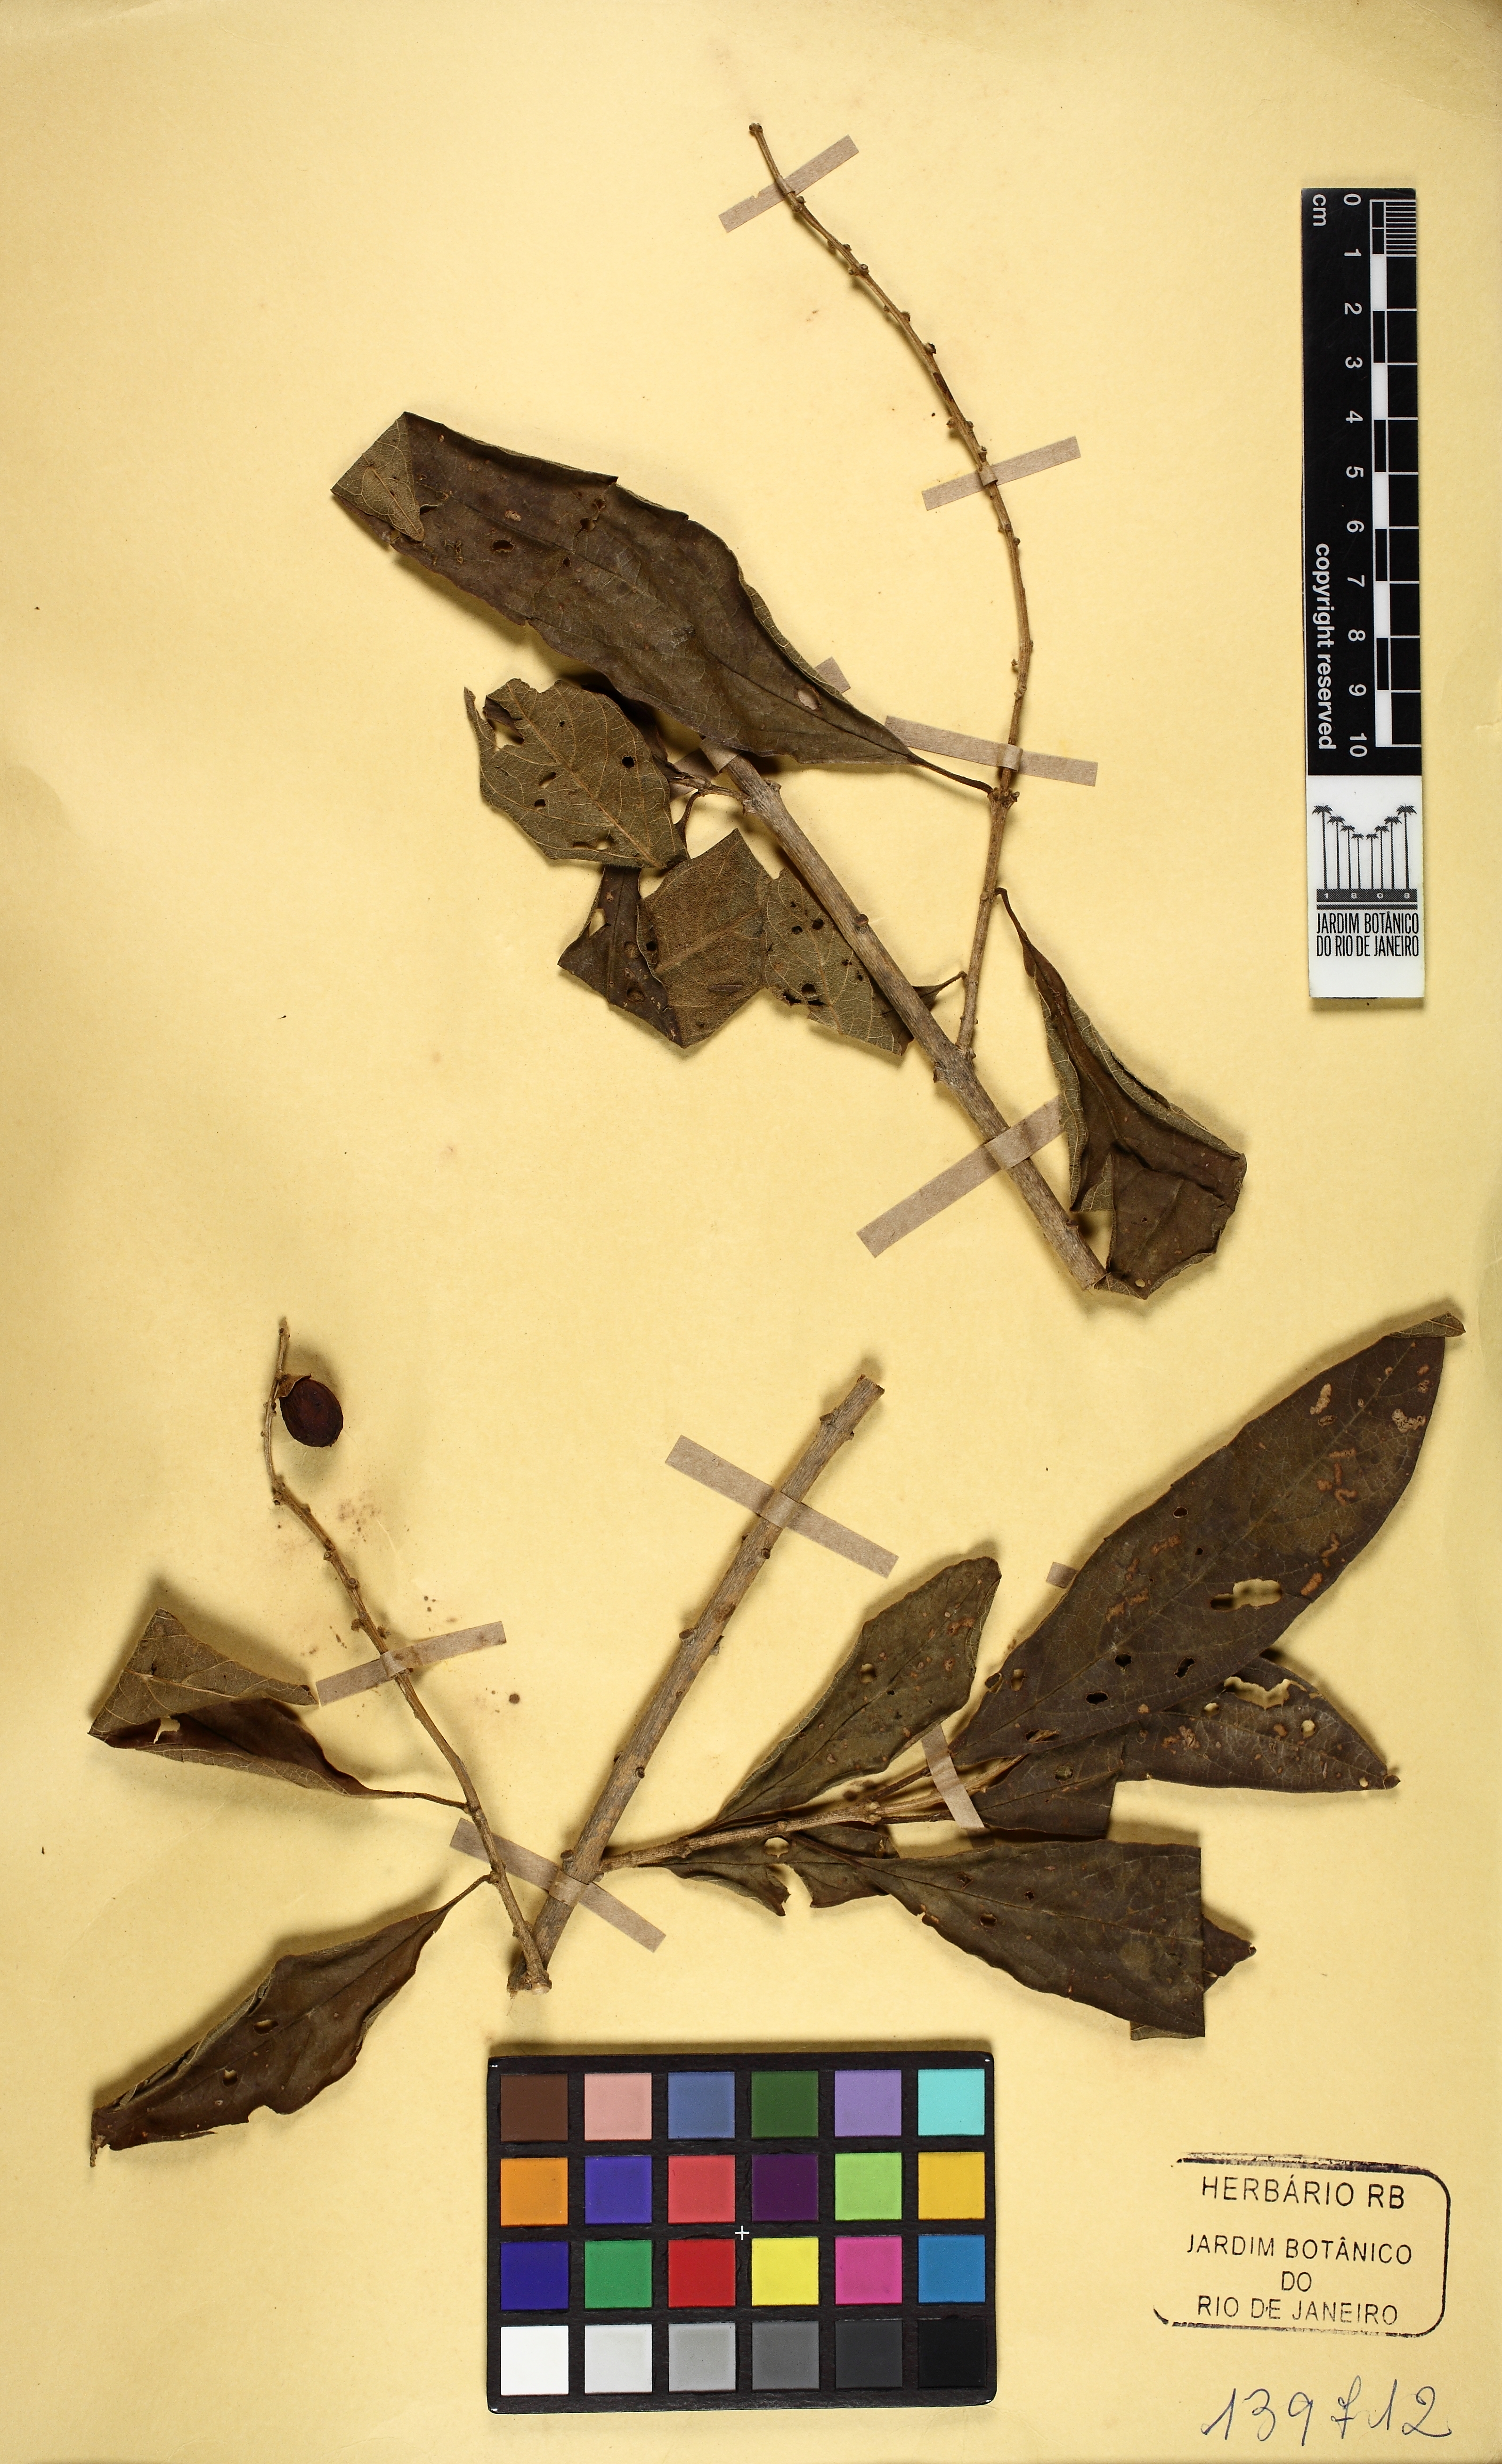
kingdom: Plantae
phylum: Tracheophyta
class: Magnoliopsida
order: Lamiales
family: Verbenaceae
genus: Citharexylum
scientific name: Citharexylum myrianthum
